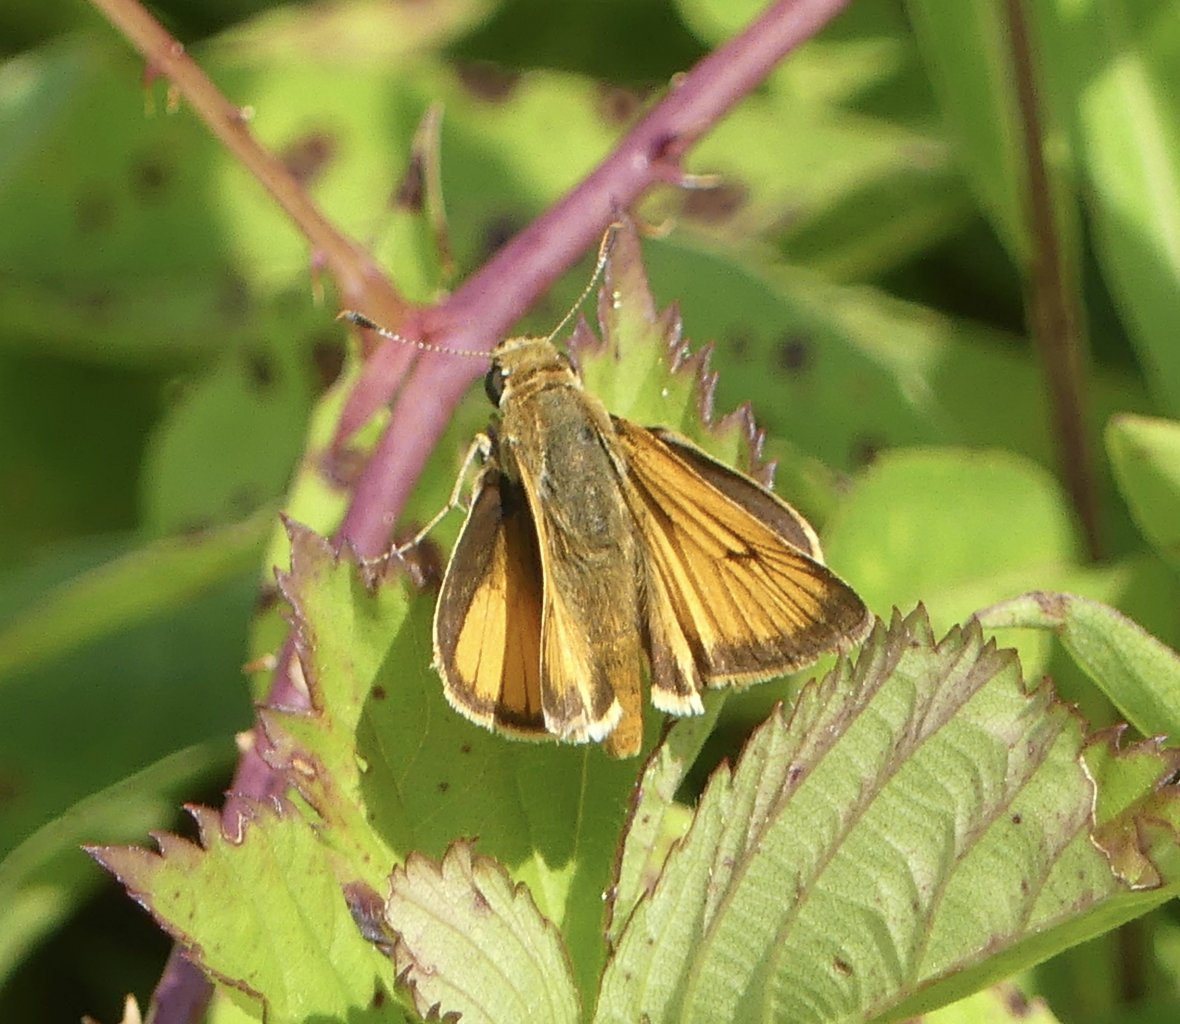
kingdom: Animalia
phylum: Arthropoda
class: Insecta
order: Lepidoptera
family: Hesperiidae
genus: Atrytone
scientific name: Atrytone delaware
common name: Delaware Skipper
